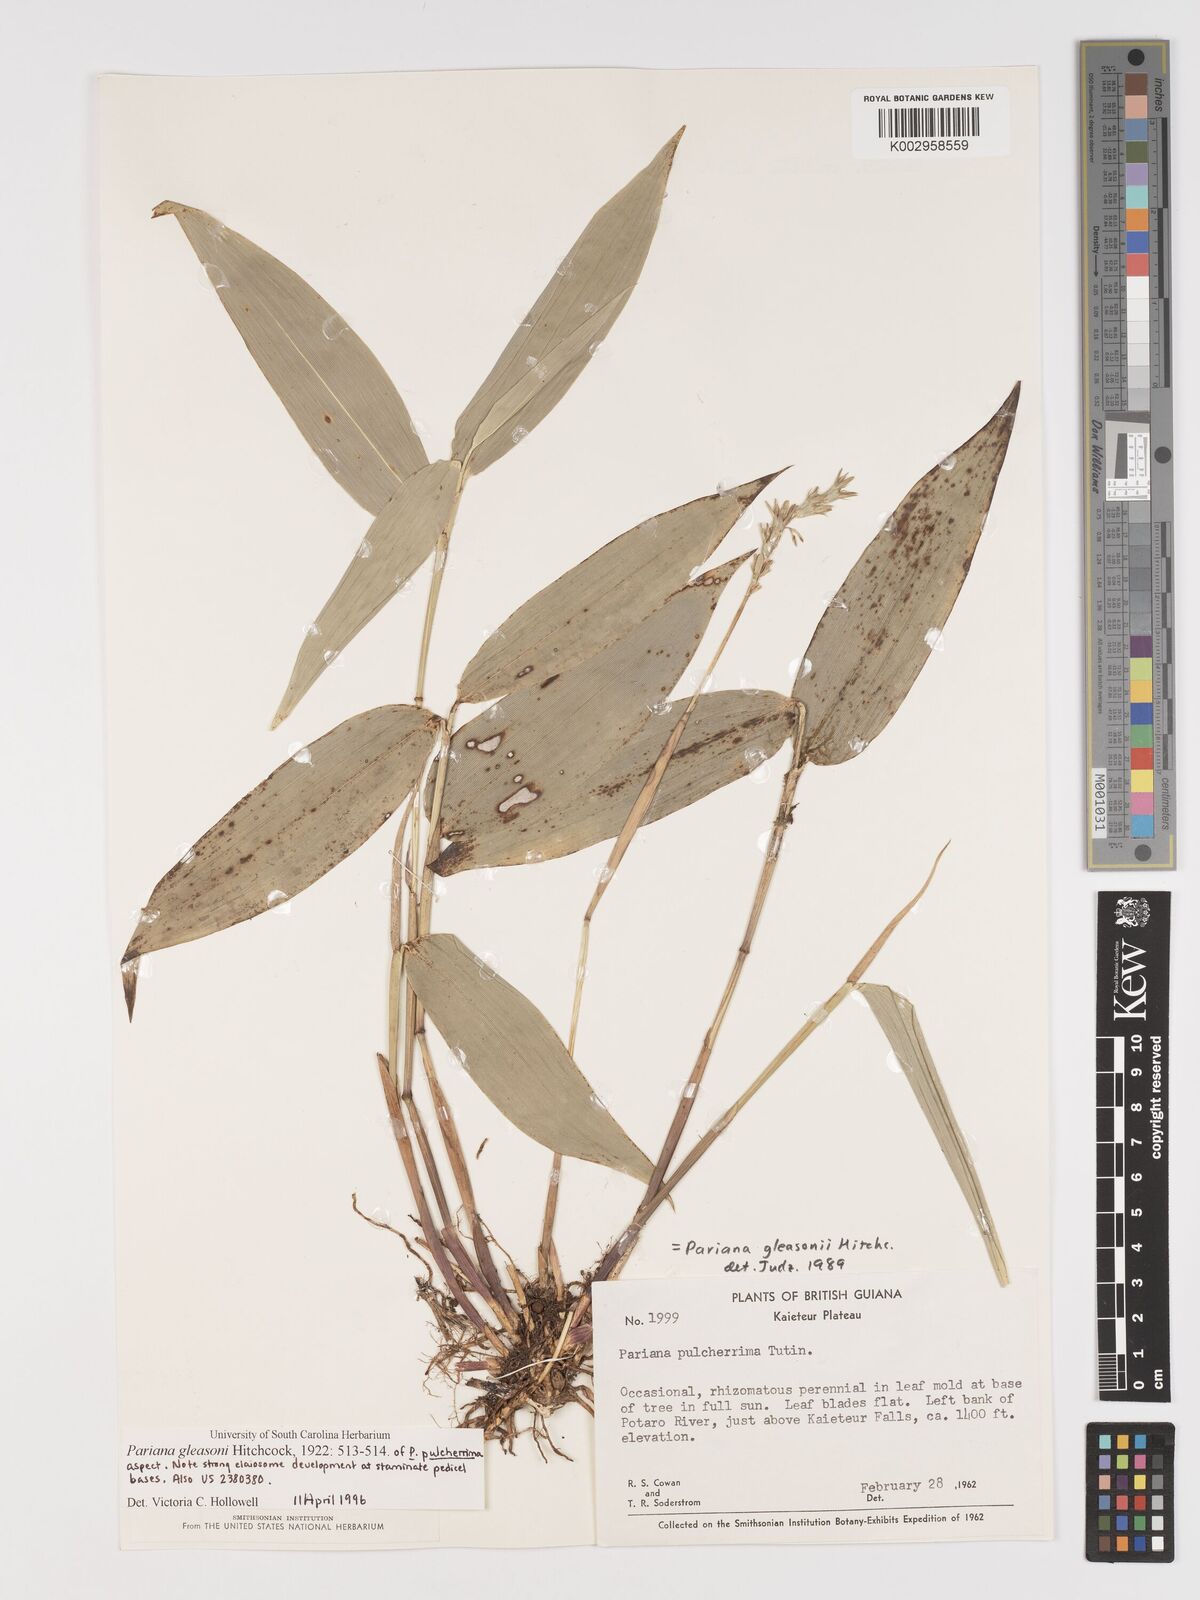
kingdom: Plantae
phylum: Tracheophyta
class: Liliopsida
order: Poales
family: Poaceae
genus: Pariana
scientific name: Pariana radiciflora
